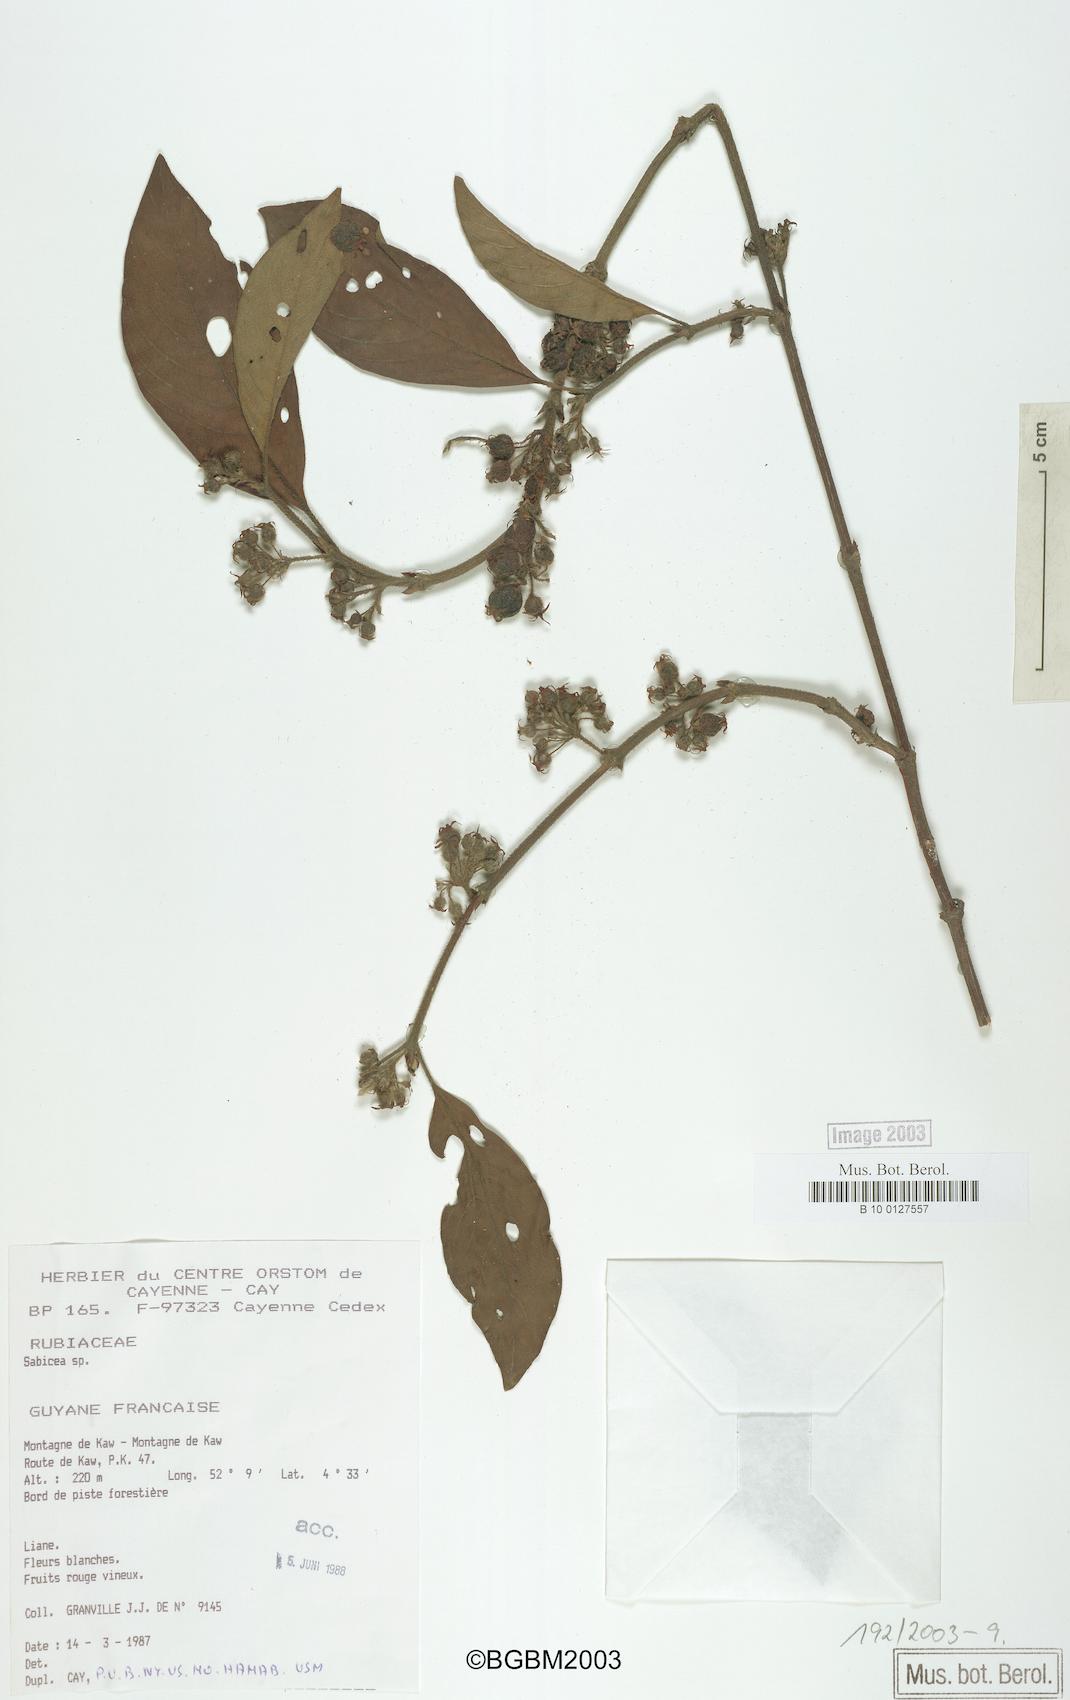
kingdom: Plantae
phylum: Tracheophyta
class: Magnoliopsida
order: Gentianales
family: Rubiaceae
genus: Sabicea
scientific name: Sabicea
